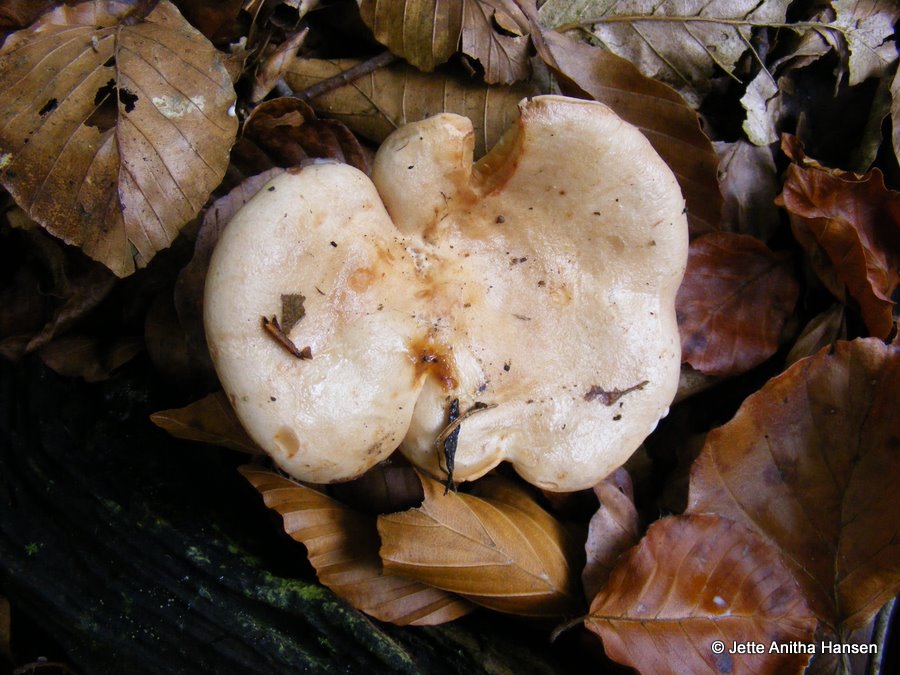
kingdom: Fungi
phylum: Basidiomycota
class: Agaricomycetes
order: Russulales
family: Russulaceae
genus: Lactarius
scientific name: Lactarius pallidus
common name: bleg mælkehat
